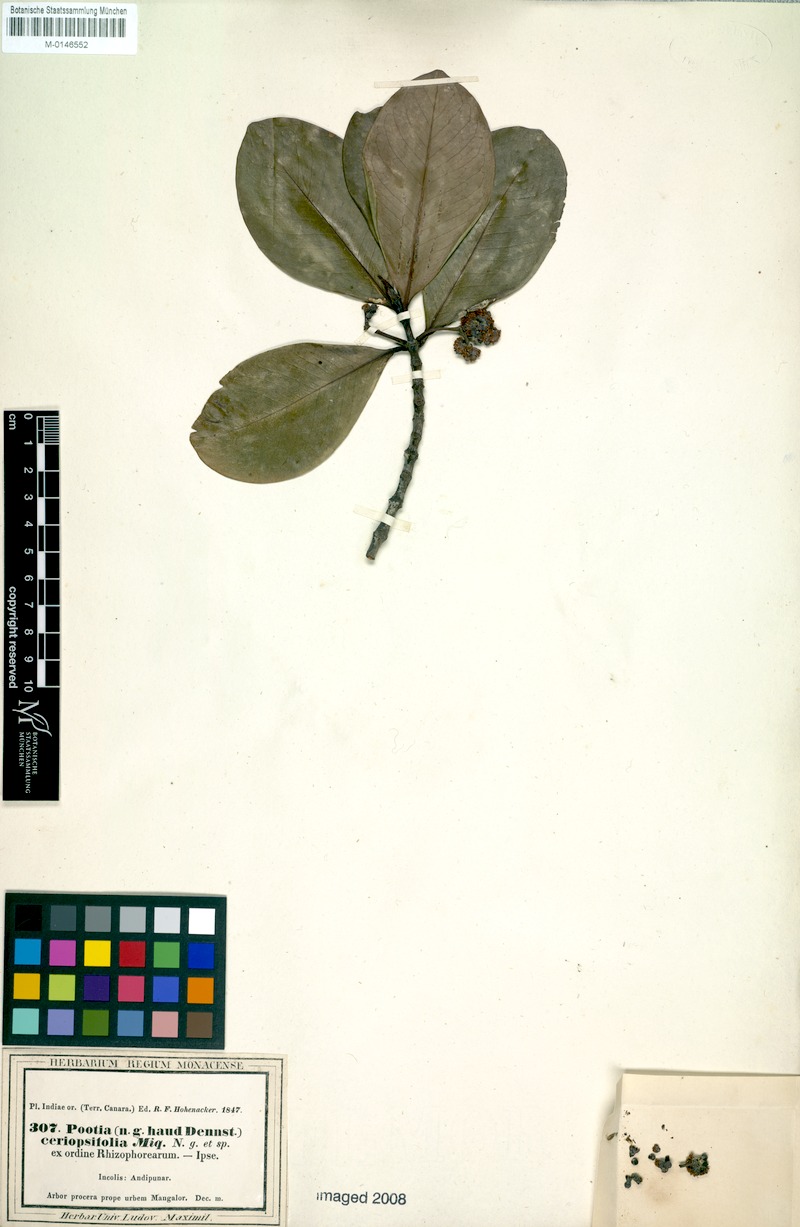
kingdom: Plantae
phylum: Tracheophyta
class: Magnoliopsida
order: Malpighiales
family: Rhizophoraceae
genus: Carallia
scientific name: Carallia brachiata
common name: Carallawood
